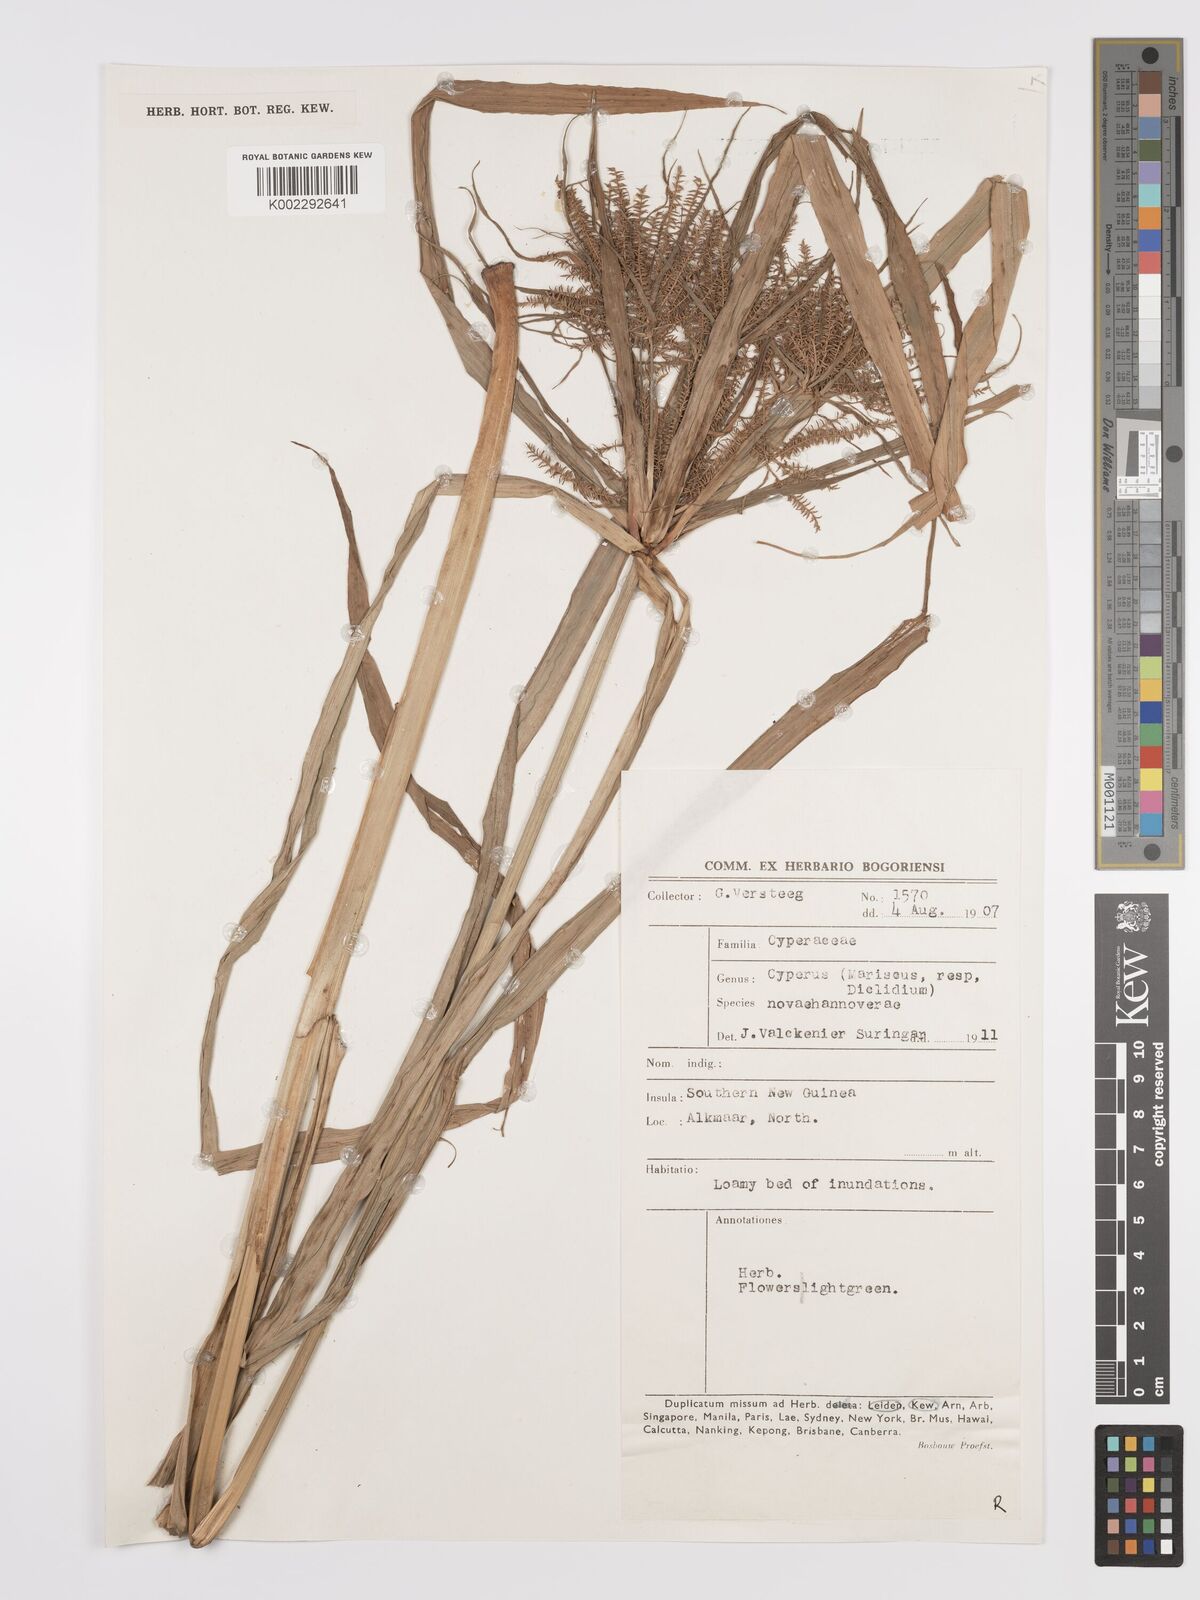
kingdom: Plantae
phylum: Tracheophyta
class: Liliopsida
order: Poales
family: Cyperaceae
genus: Cyperus
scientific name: Cyperus odoratus
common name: Fragrant flatsedge
